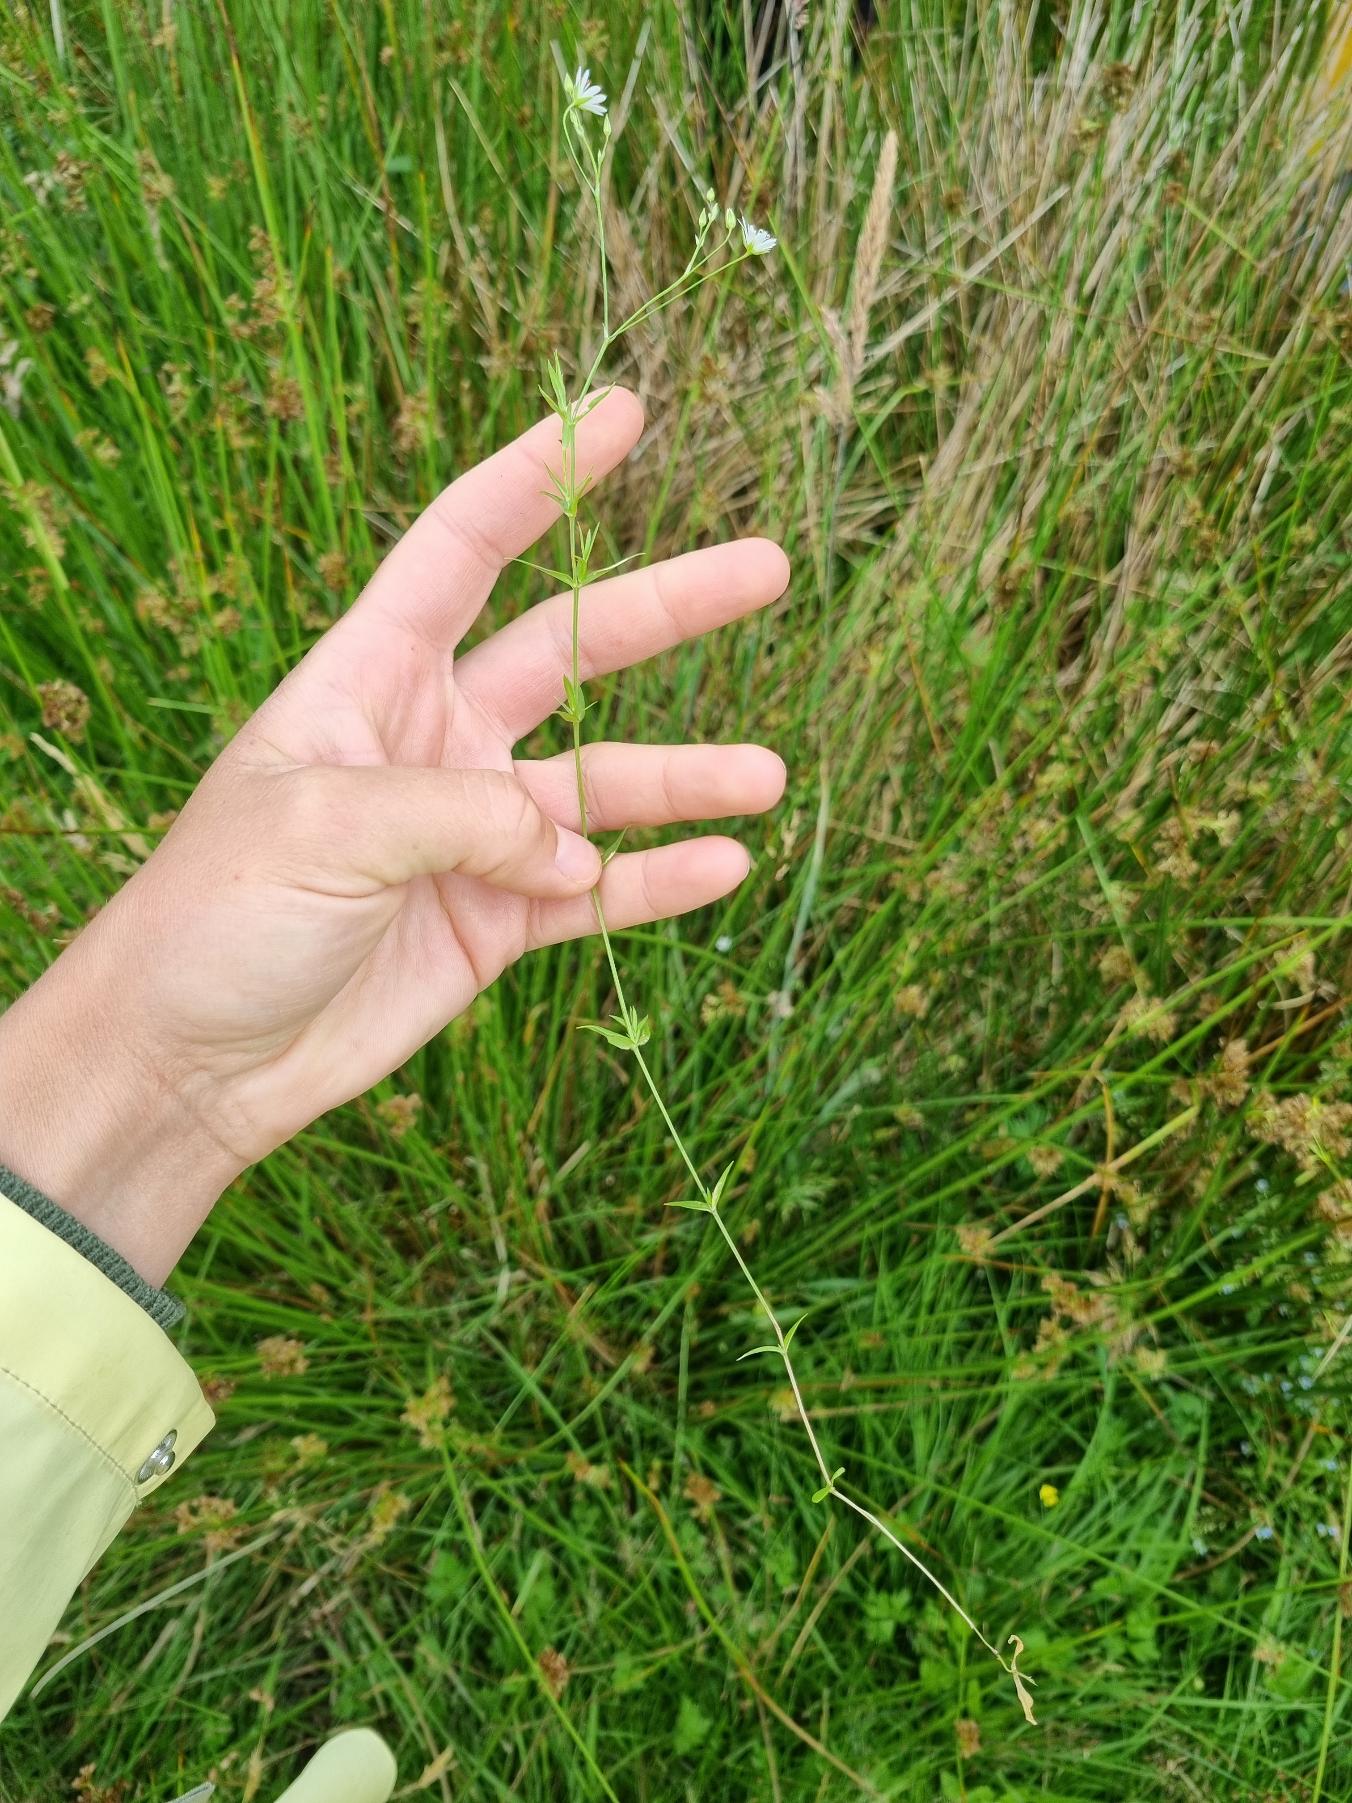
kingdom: Plantae
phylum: Tracheophyta
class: Magnoliopsida
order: Caryophyllales
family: Caryophyllaceae
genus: Stellaria
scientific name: Stellaria graminea
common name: Græsbladet fladstjerne
